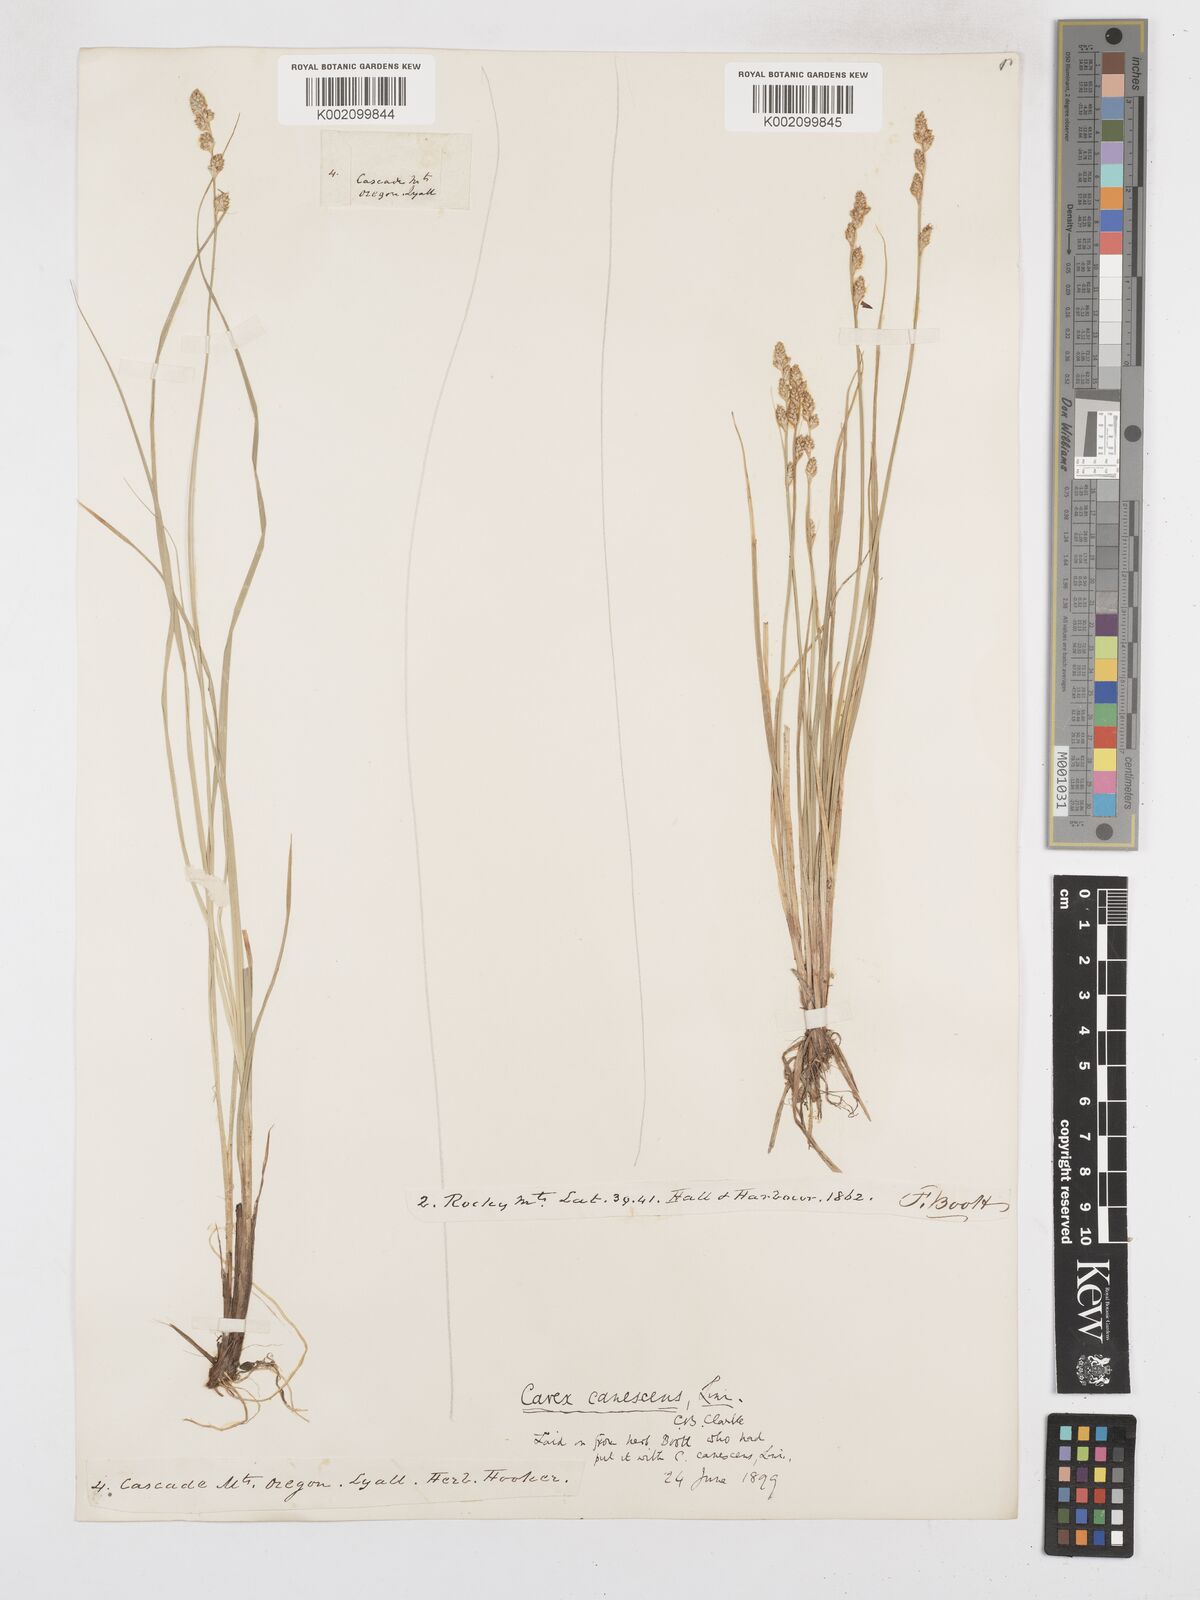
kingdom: Plantae
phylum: Tracheophyta
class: Liliopsida
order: Poales
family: Cyperaceae
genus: Carex
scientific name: Carex curta
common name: White sedge
